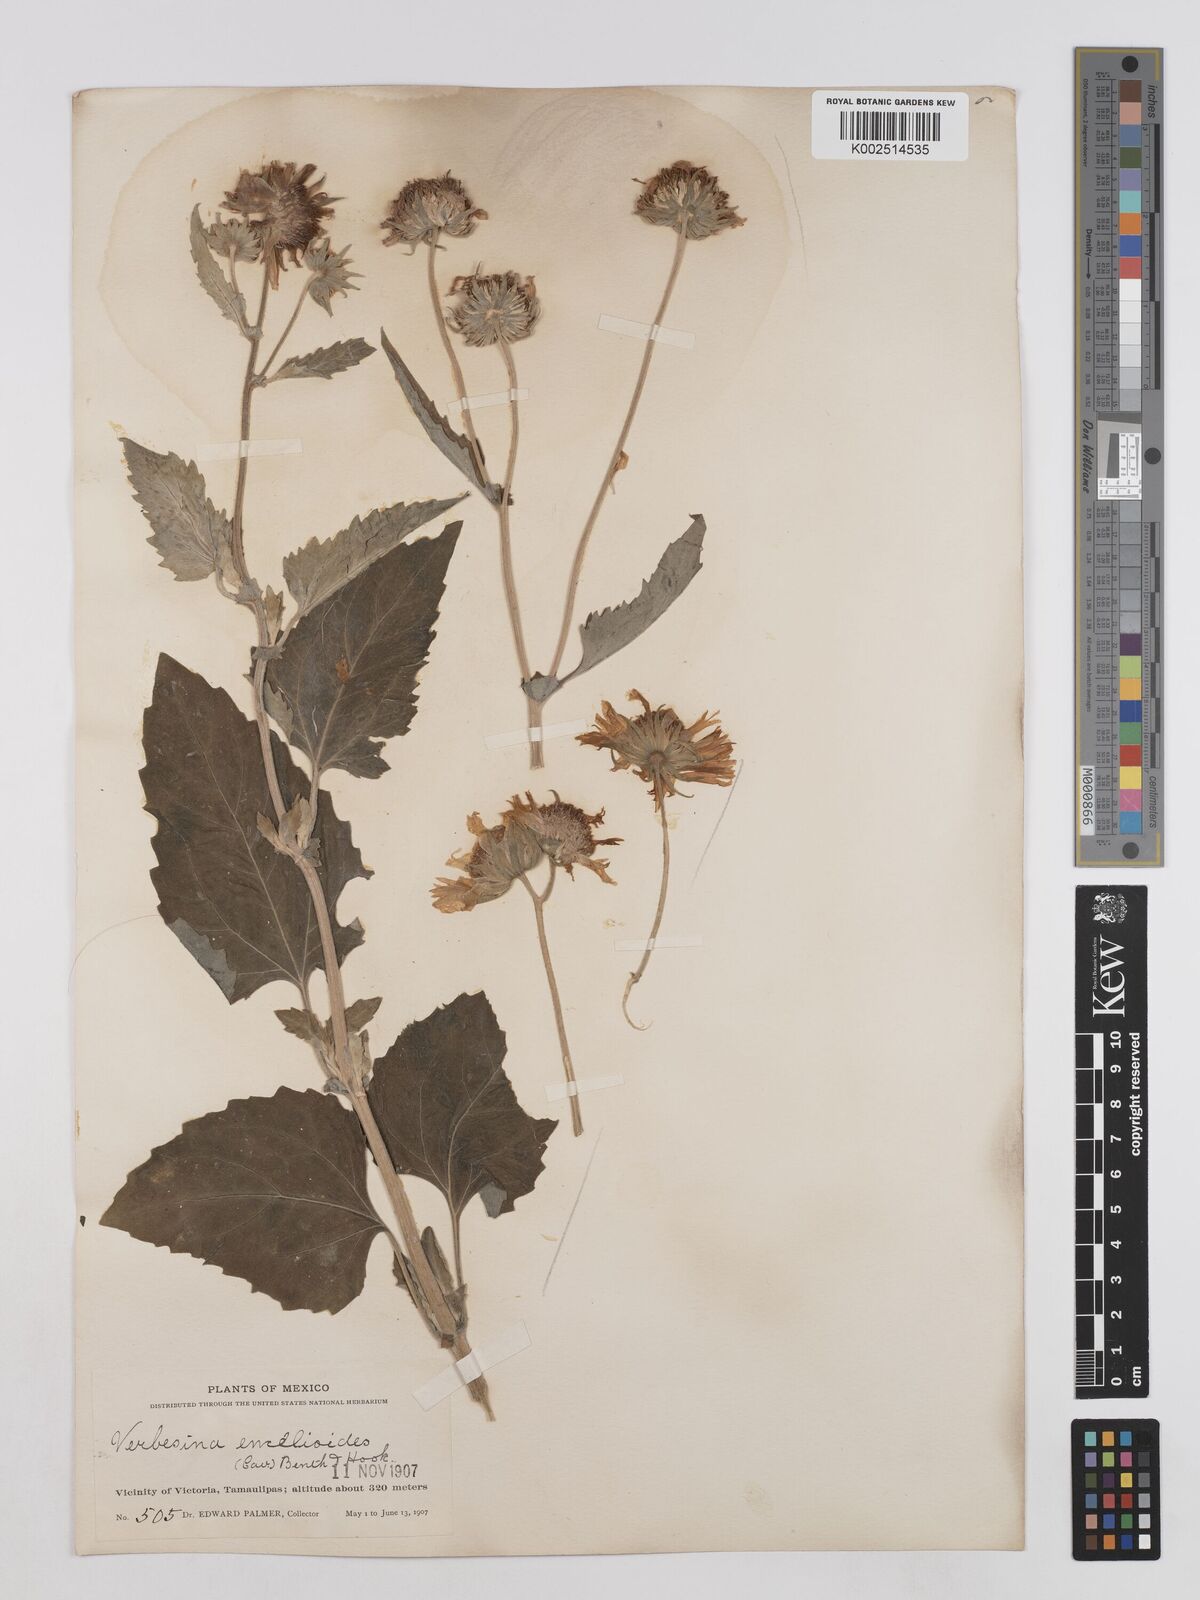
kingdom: Plantae
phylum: Tracheophyta
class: Magnoliopsida
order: Asterales
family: Asteraceae
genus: Verbesina
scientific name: Verbesina encelioides
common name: Golden crownbeard
